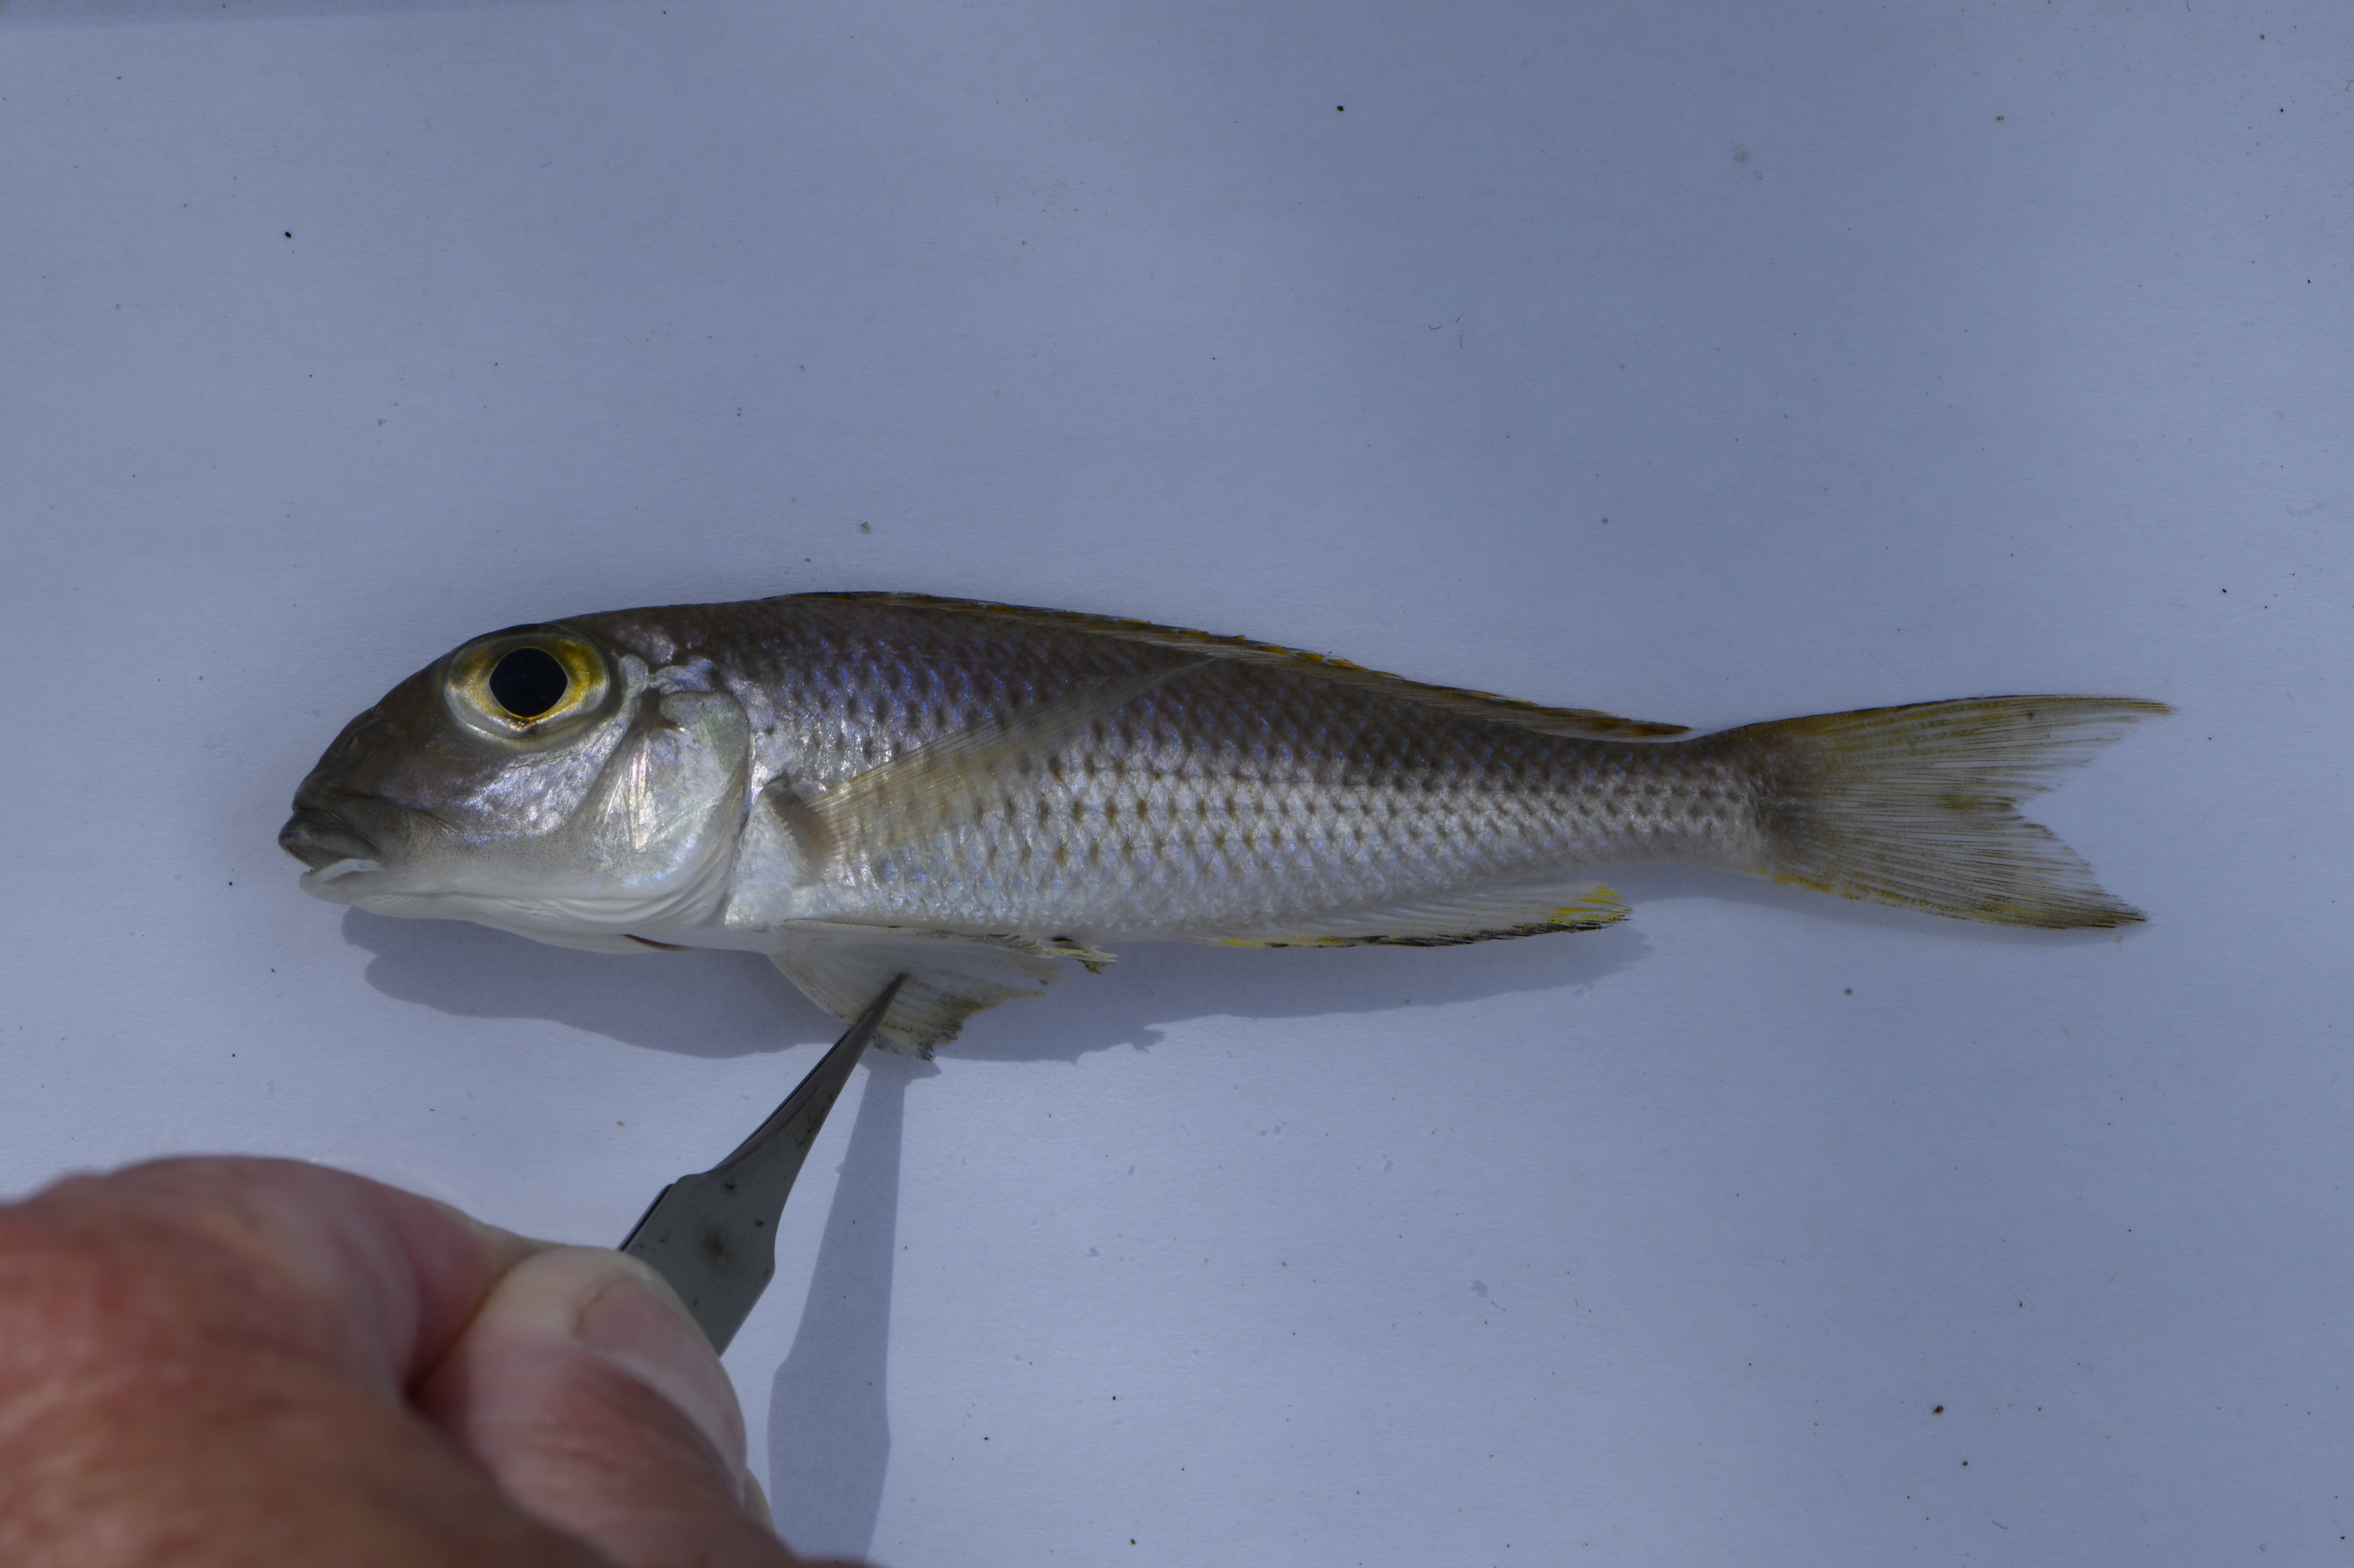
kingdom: Animalia
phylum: Chordata
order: Perciformes
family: Cichlidae
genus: Xenotilapia
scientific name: Xenotilapia sima
